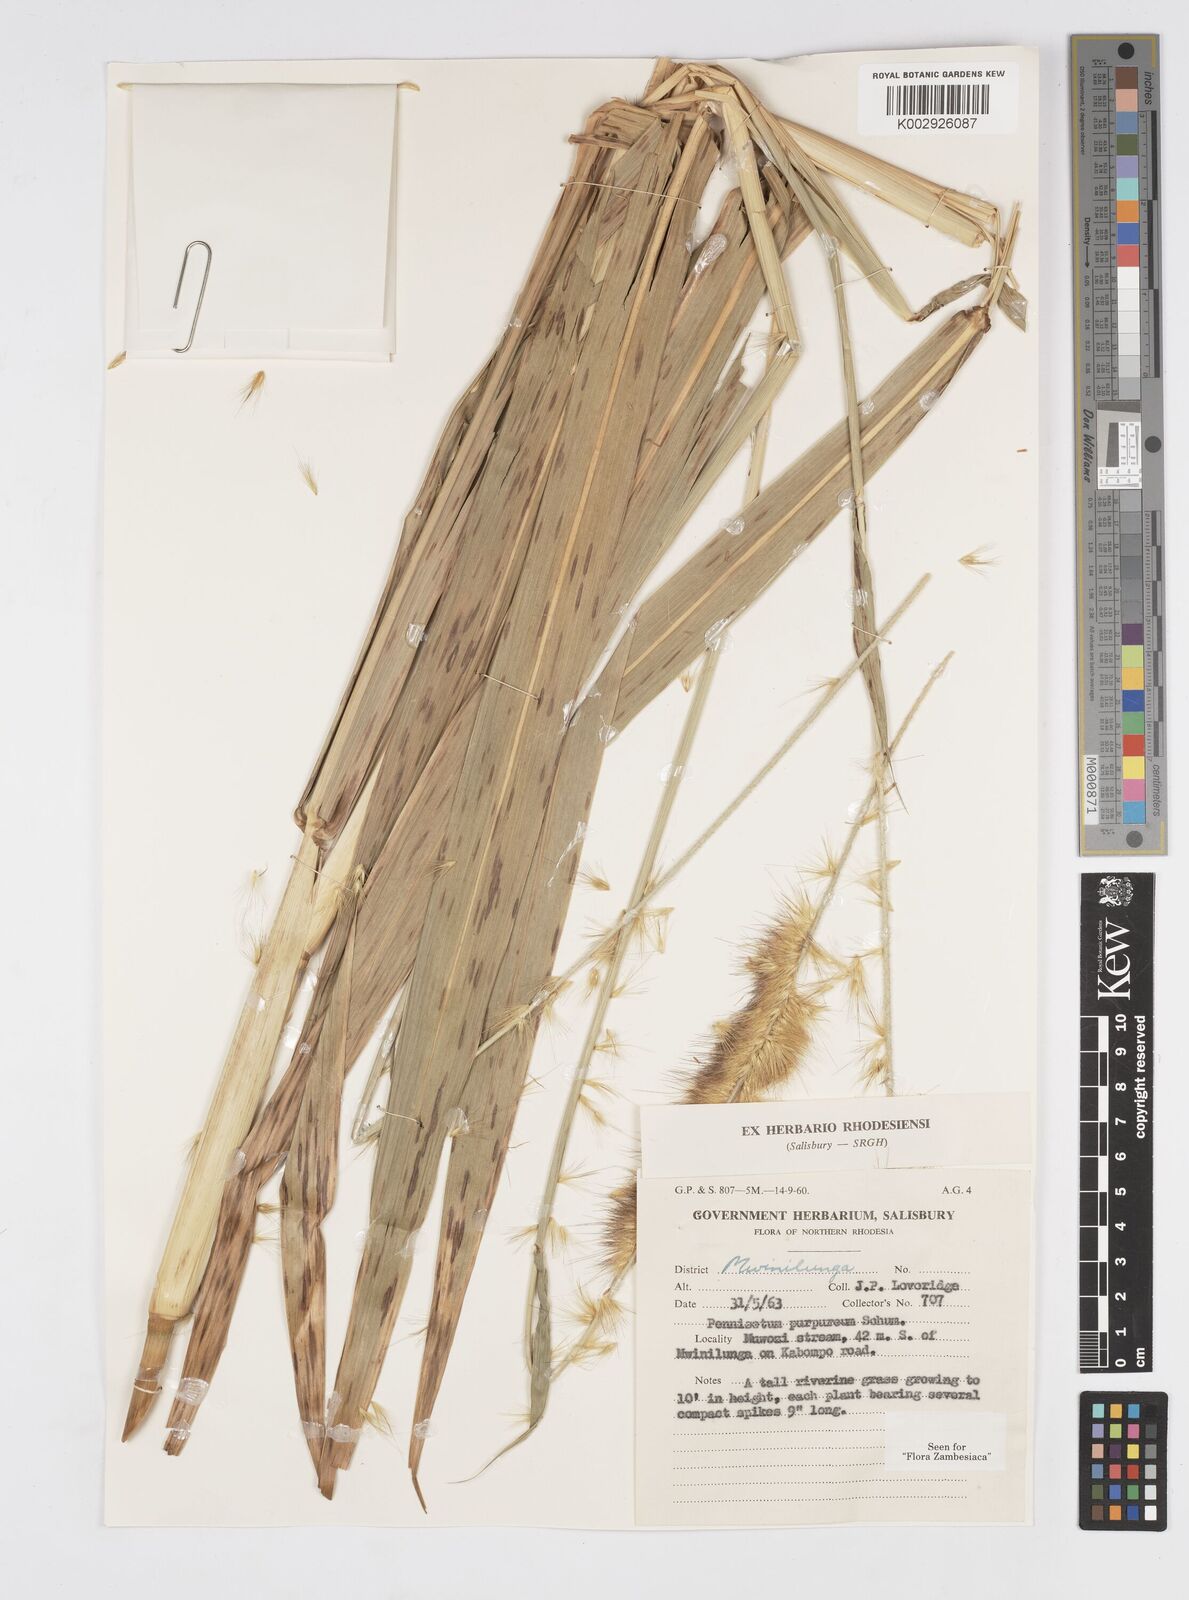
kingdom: Plantae
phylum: Tracheophyta
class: Liliopsida
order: Poales
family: Poaceae
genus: Cenchrus
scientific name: Cenchrus purpureus
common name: Elephant grass
